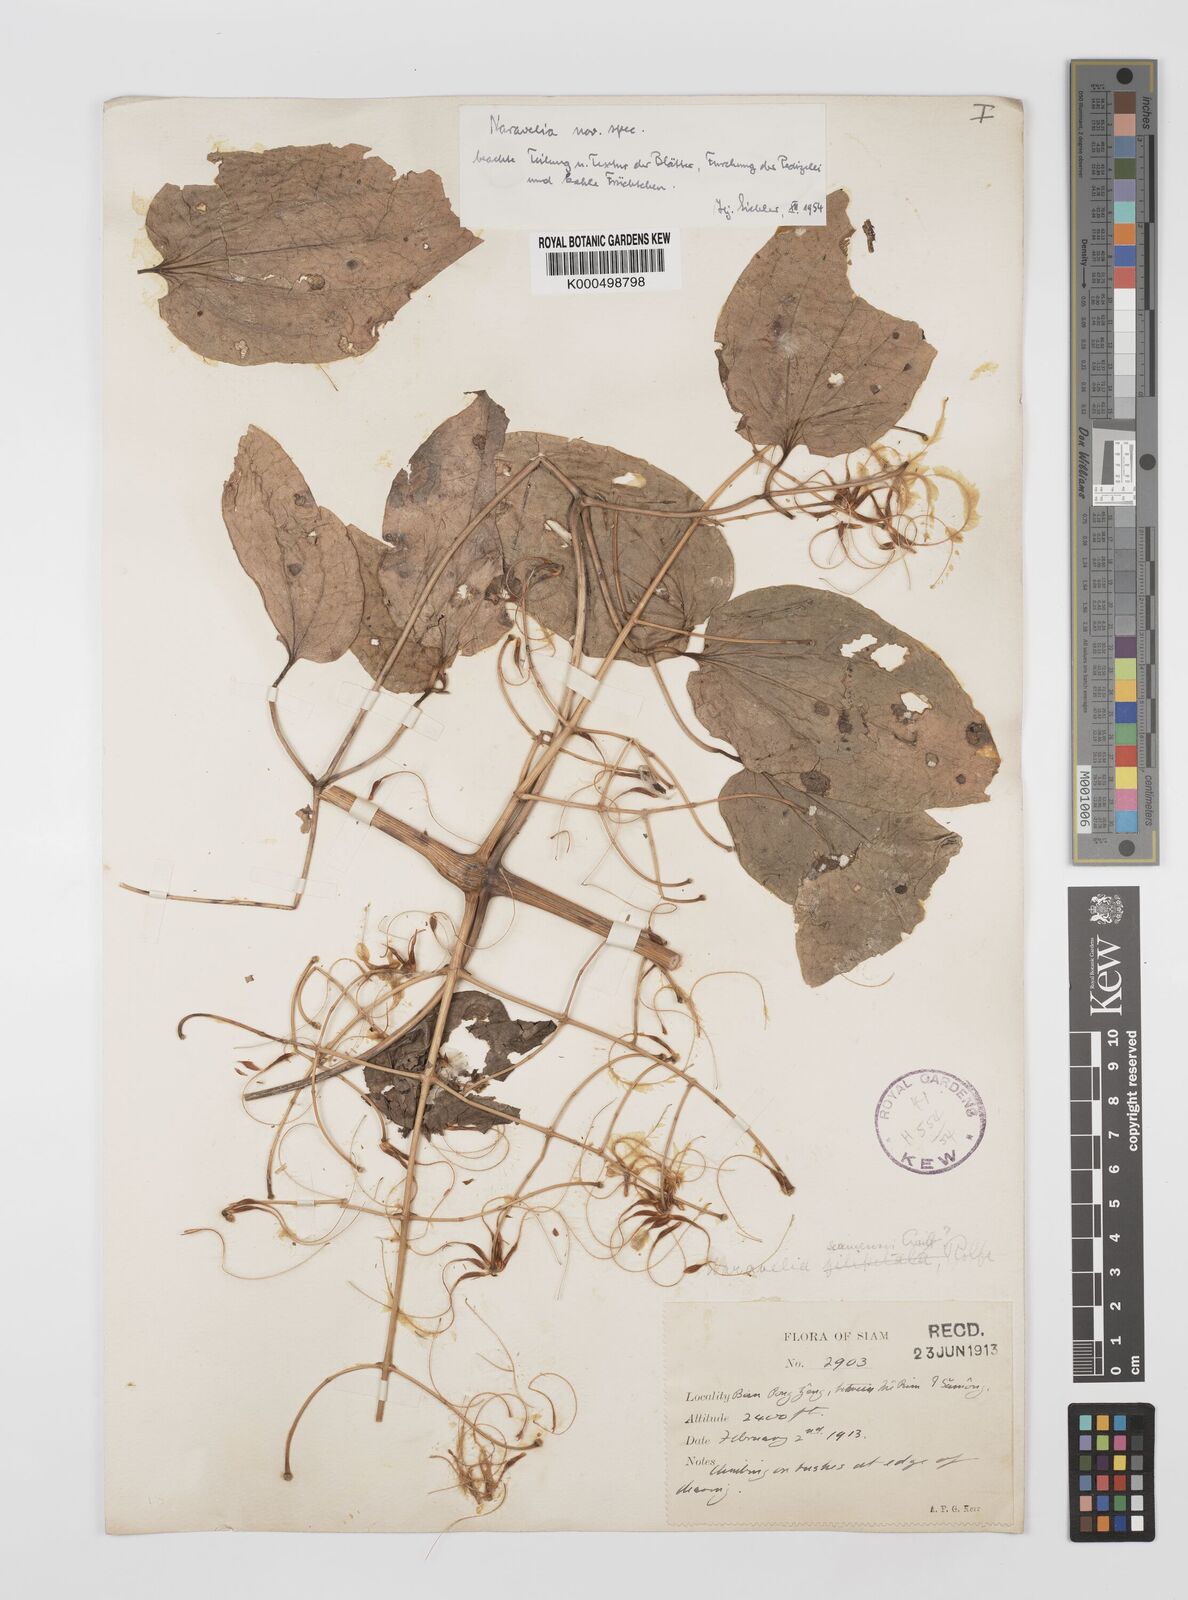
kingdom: Plantae
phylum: Tracheophyta
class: Magnoliopsida
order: Ranunculales
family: Ranunculaceae
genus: Clematis
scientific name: Clematis
